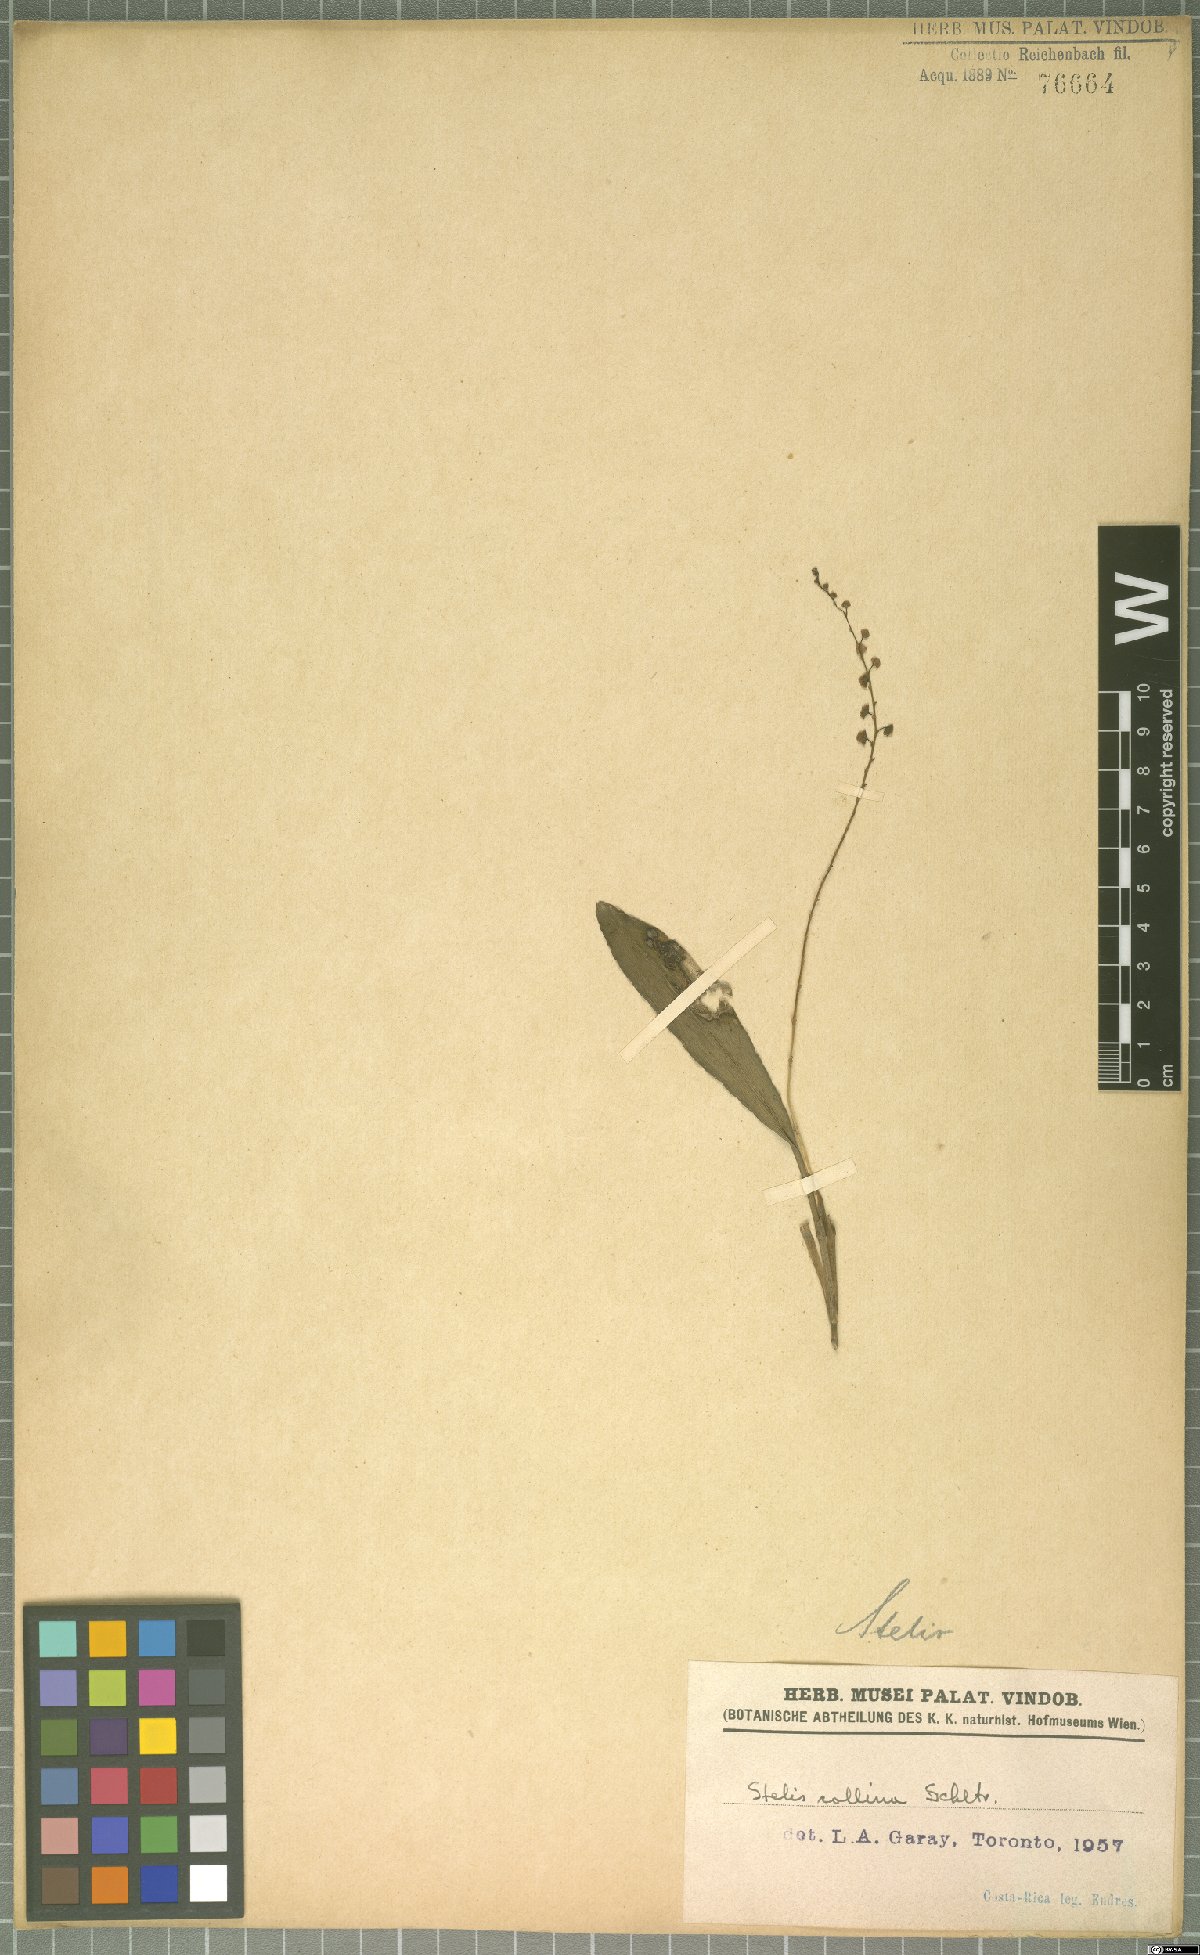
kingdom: Plantae
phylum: Tracheophyta
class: Liliopsida
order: Asparagales
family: Orchidaceae
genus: Stelis
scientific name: Stelis collina
